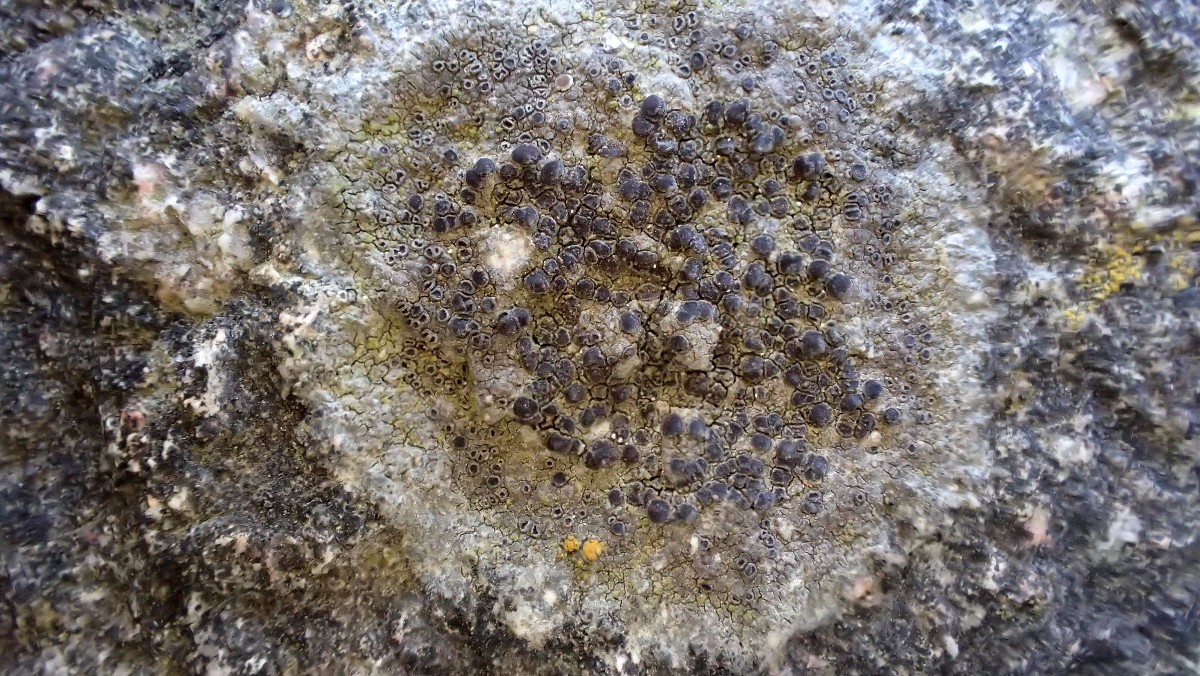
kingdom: Fungi
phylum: Ascomycota
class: Lecanoromycetes
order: Lecanorales
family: Lecanoraceae
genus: Lecanora
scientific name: Lecanora helicopis
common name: salt-kantskivelav
